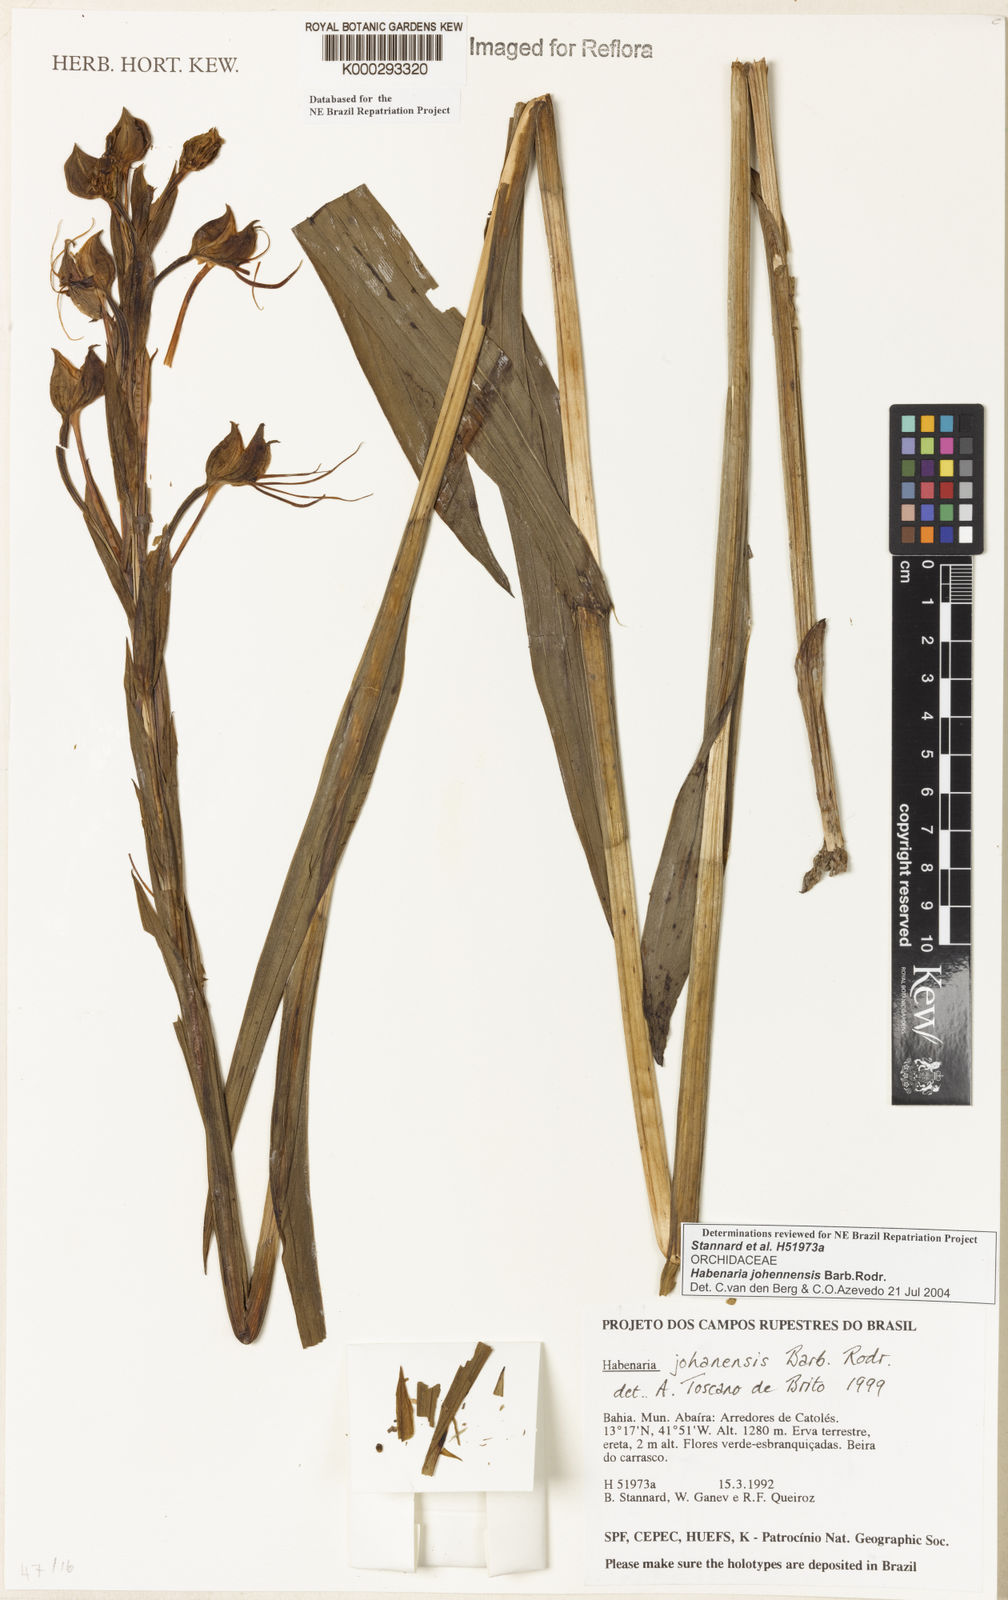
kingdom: Plantae
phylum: Tracheophyta
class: Liliopsida
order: Asparagales
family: Orchidaceae
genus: Habenaria
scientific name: Habenaria johannensis
